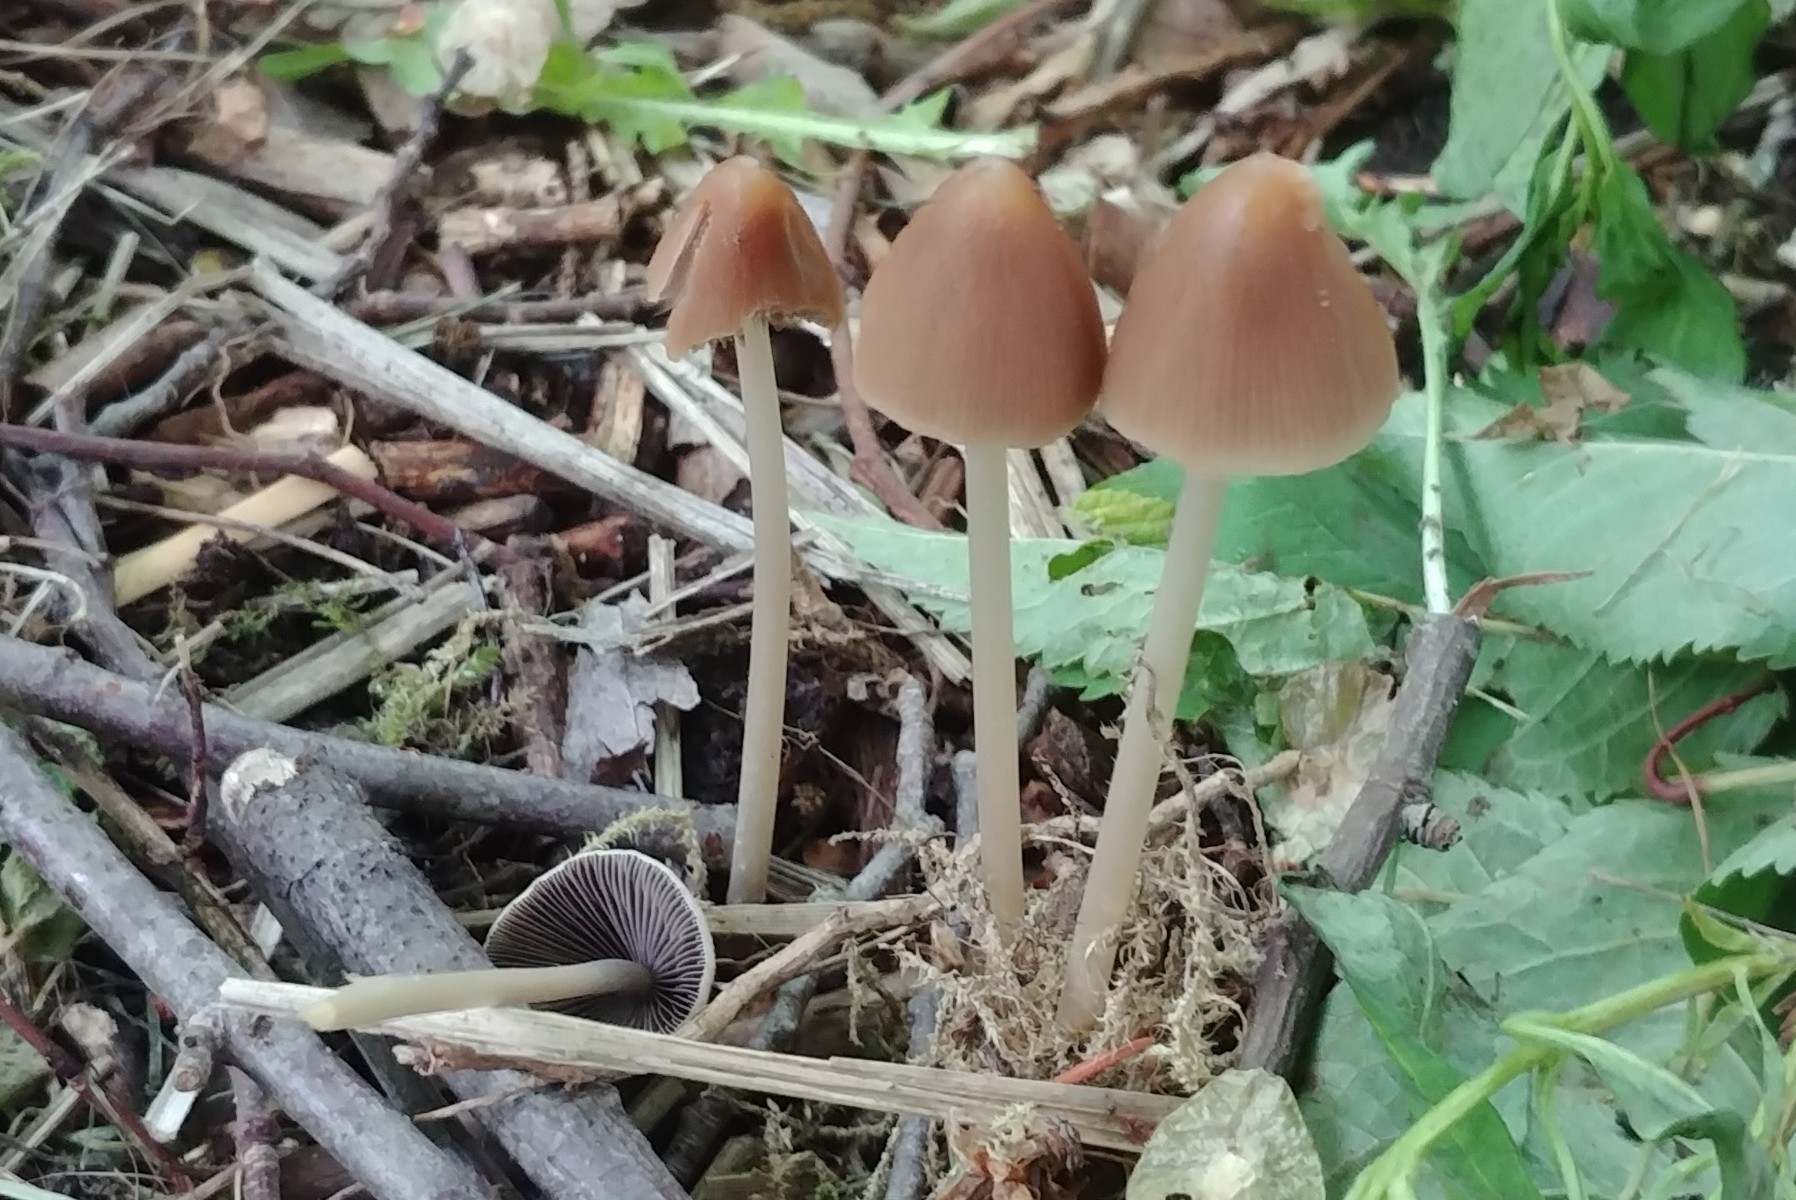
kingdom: Fungi
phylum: Basidiomycota
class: Agaricomycetes
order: Agaricales
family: Psathyrellaceae
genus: Parasola
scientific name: Parasola conopilea
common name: kegle-hjulhat
